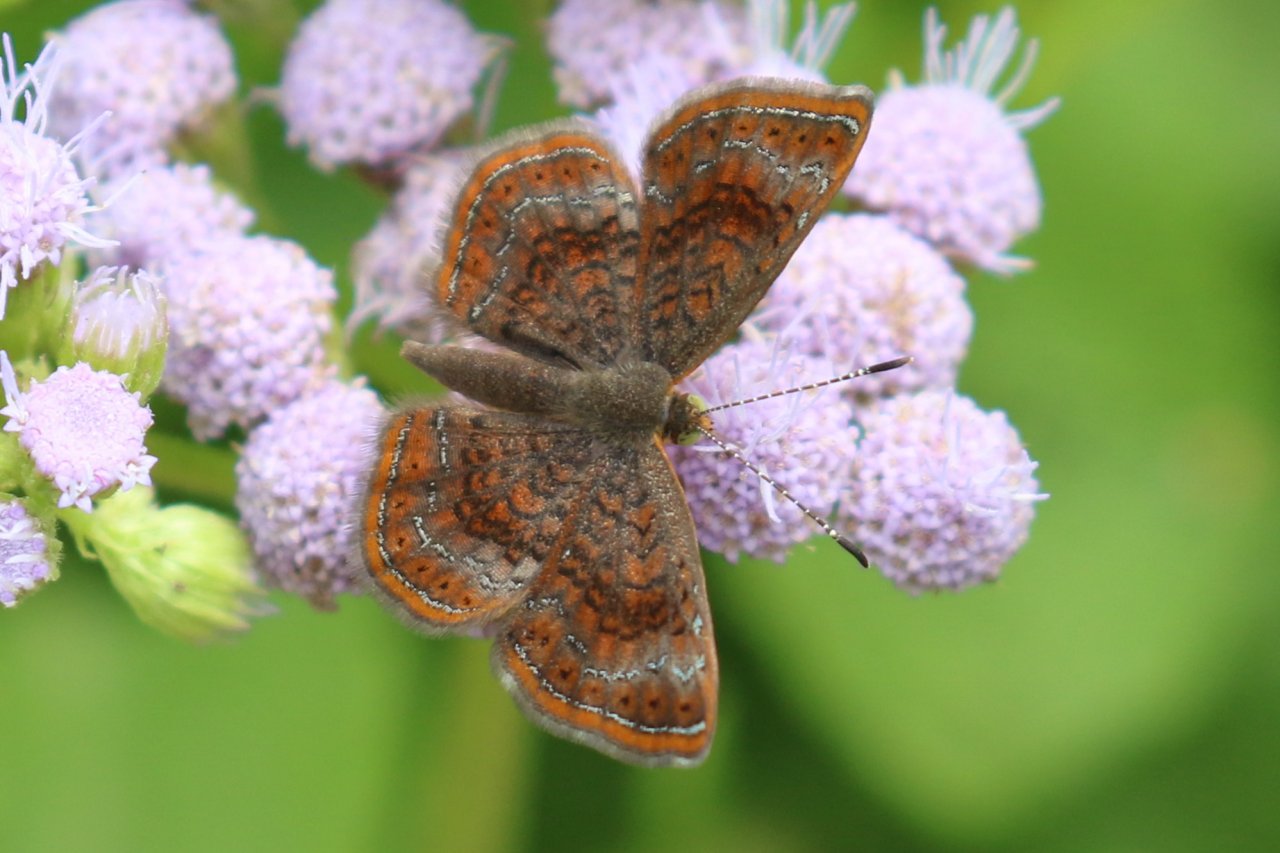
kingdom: Animalia
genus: Calephelis
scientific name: Calephelis perditalis
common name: Rounded Metalmark
